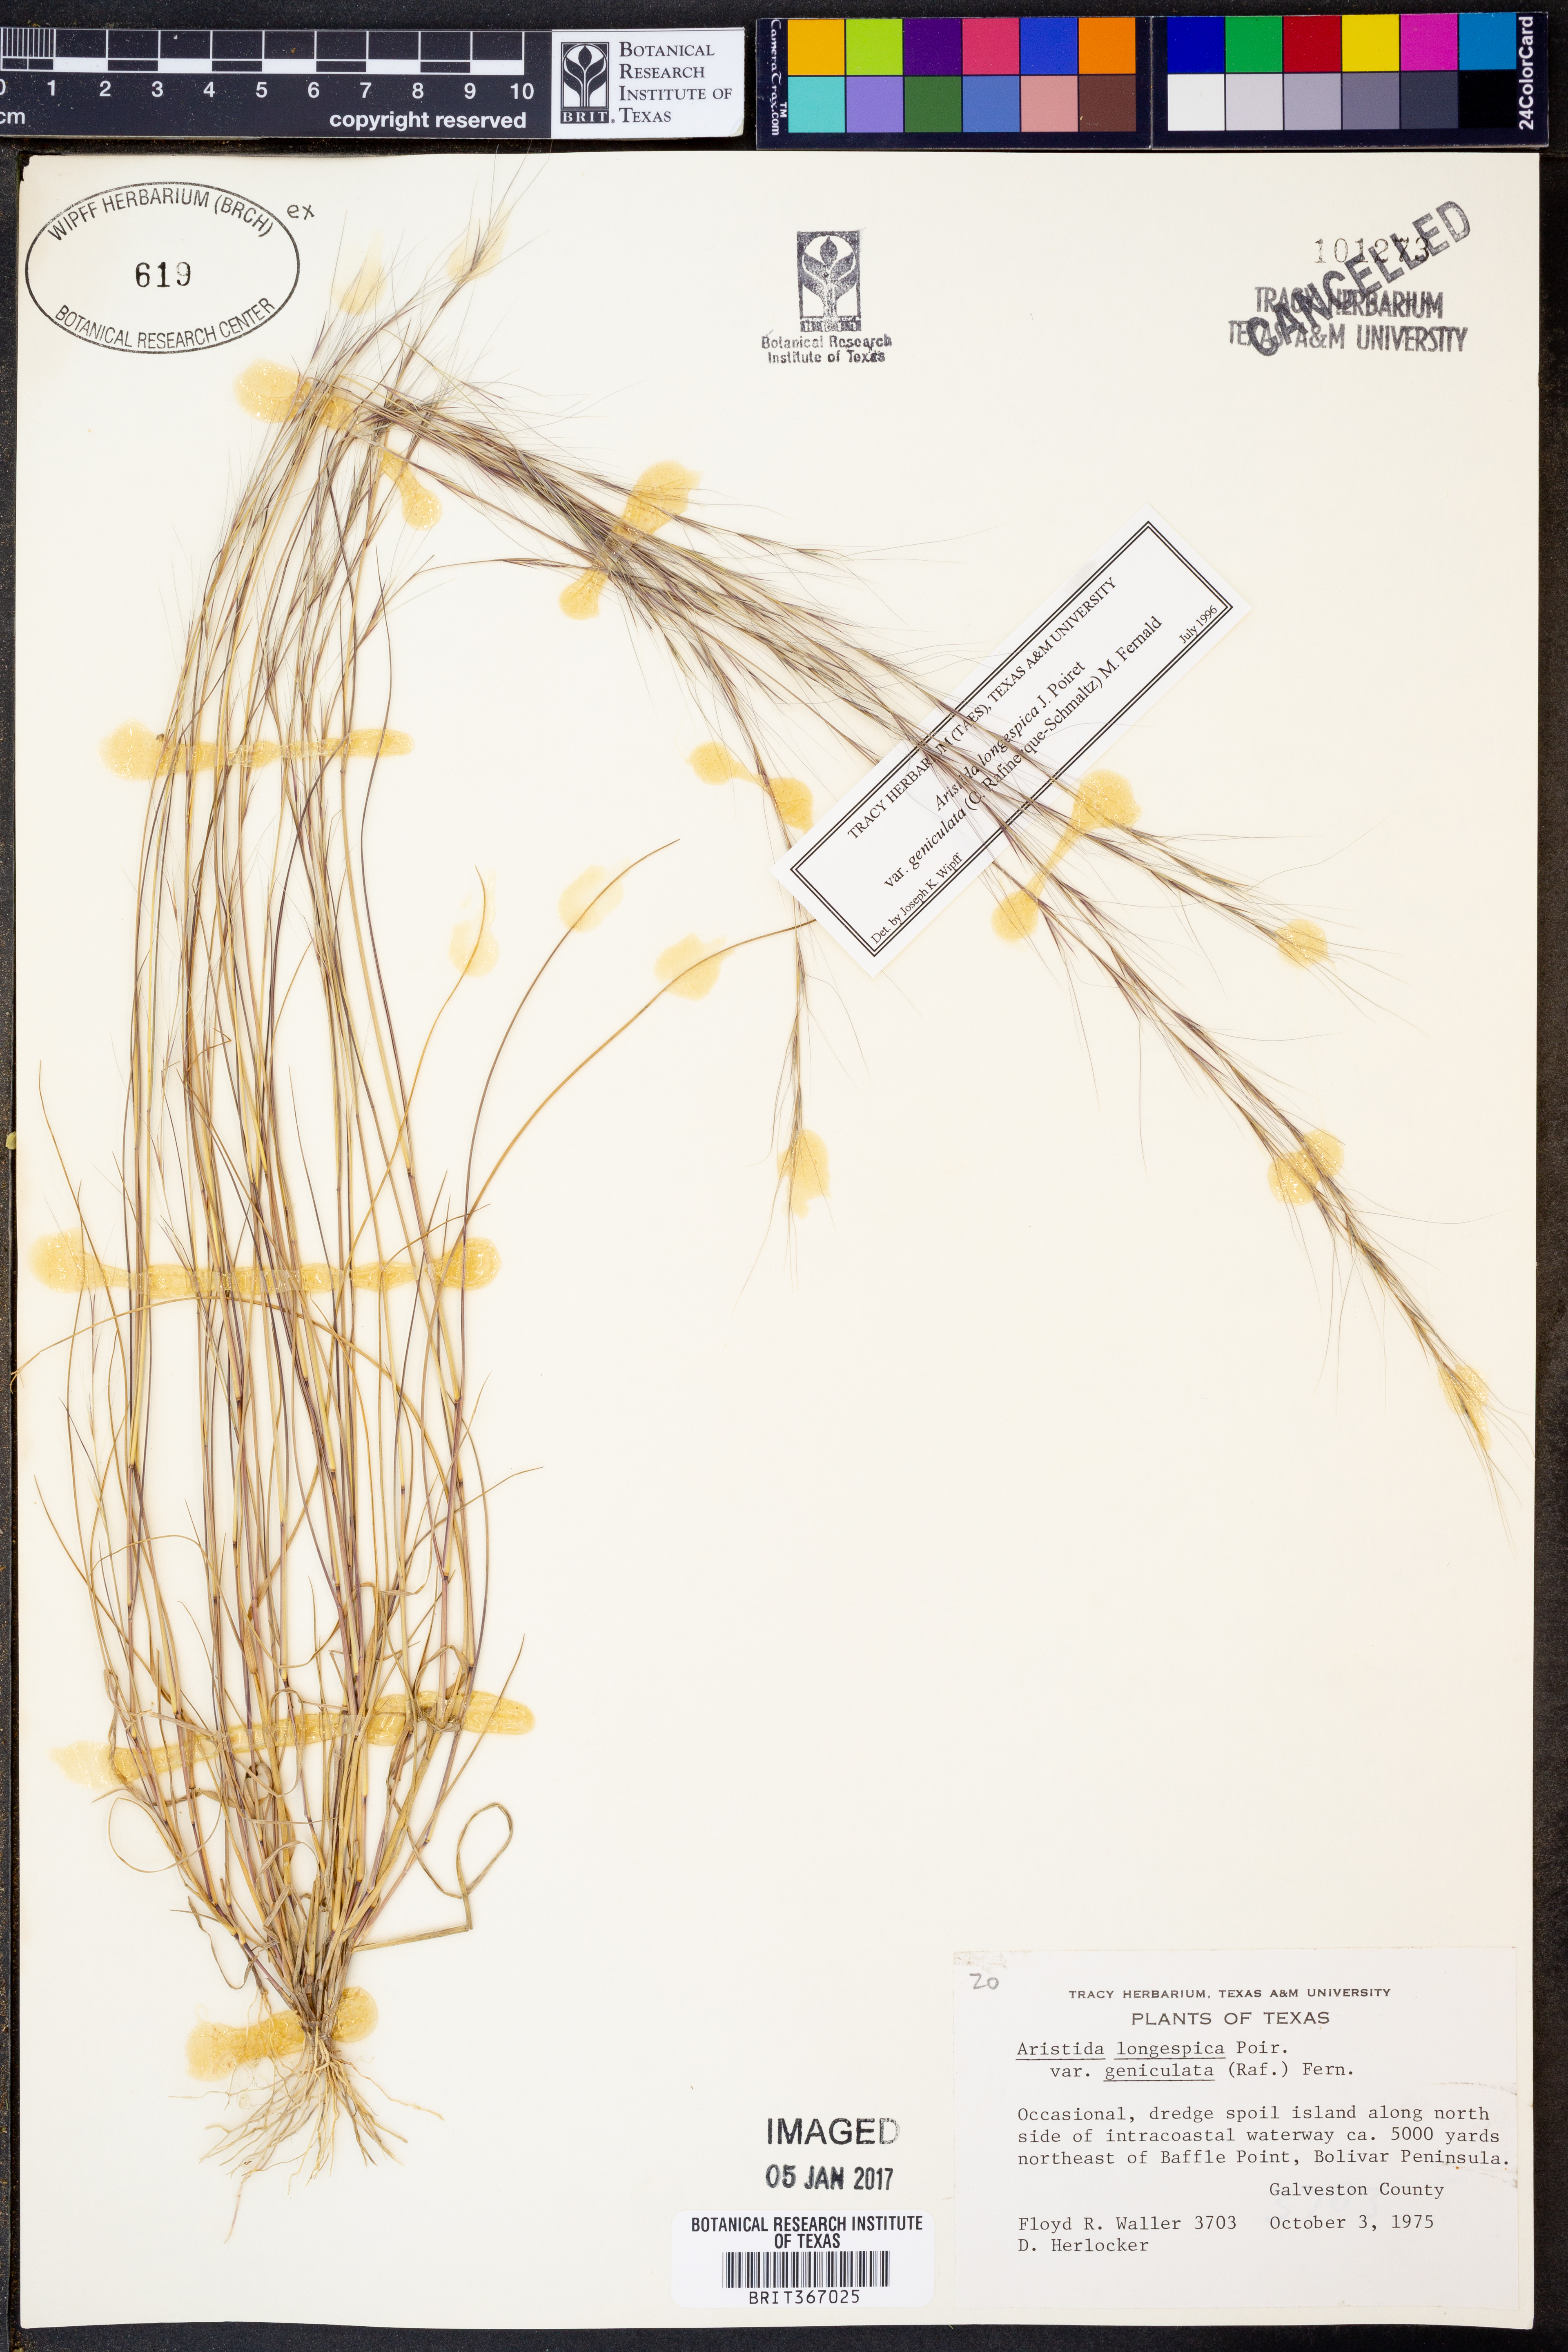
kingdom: Plantae
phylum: Tracheophyta
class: Liliopsida
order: Poales
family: Poaceae
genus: Aristida
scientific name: Aristida longespica
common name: Long-spiked triple-awned grass
